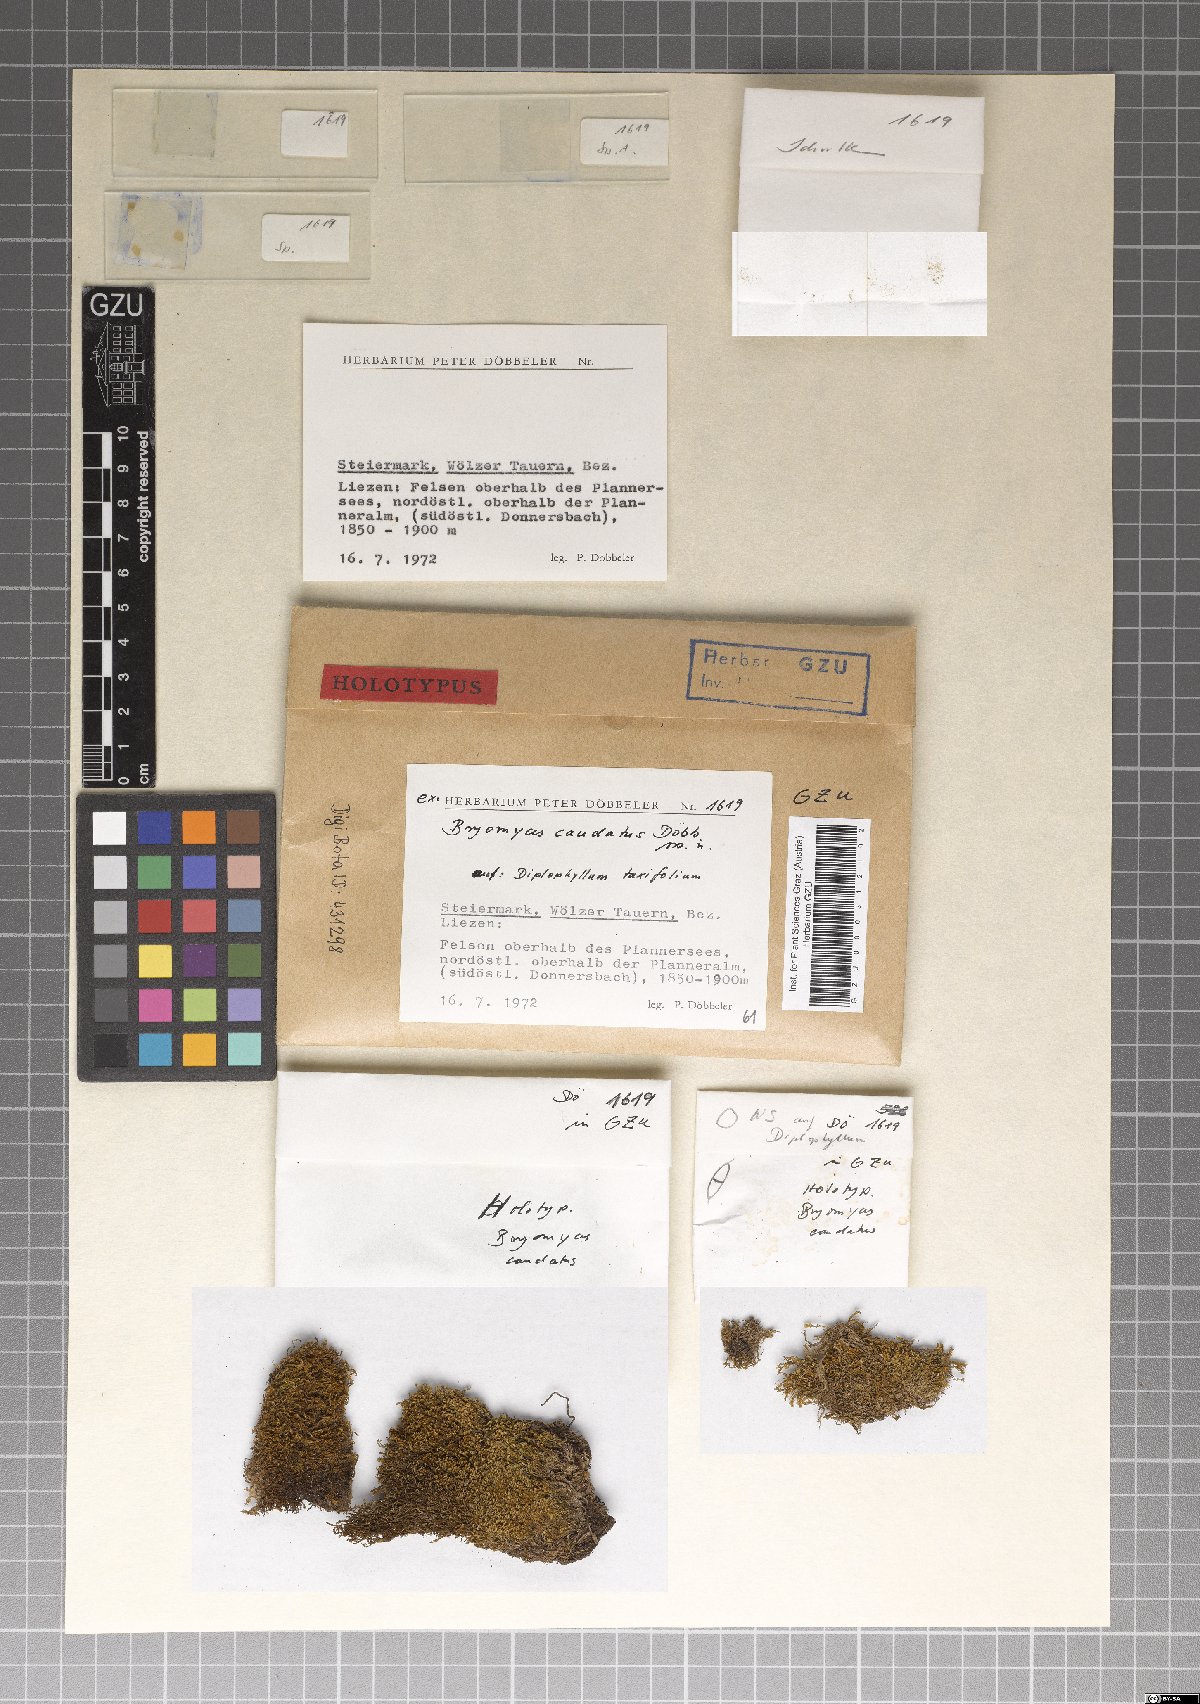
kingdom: Fungi
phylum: Ascomycota
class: Dothideomycetes
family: Pseudoperisporiaceae
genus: Bryomyces
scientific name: Bryomyces caudatus
